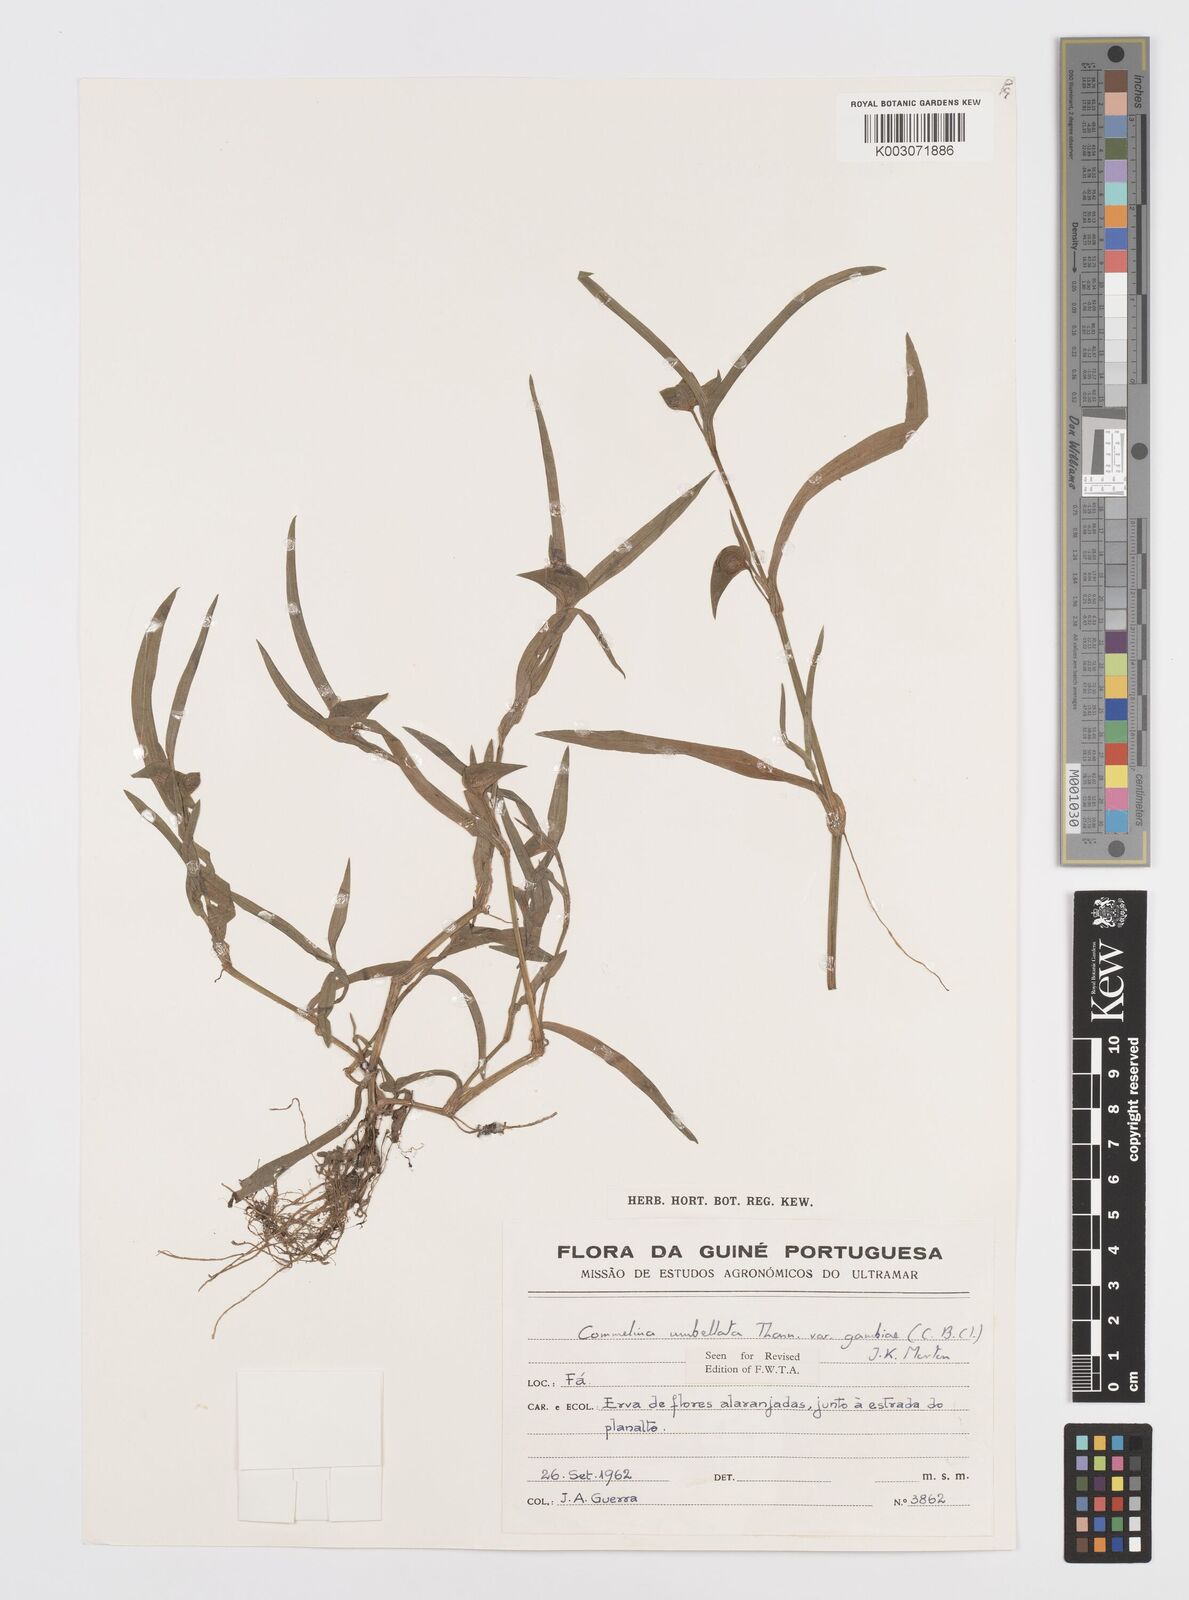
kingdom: Plantae
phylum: Tracheophyta
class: Liliopsida
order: Commelinales
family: Commelinaceae
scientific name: Commelinaceae
